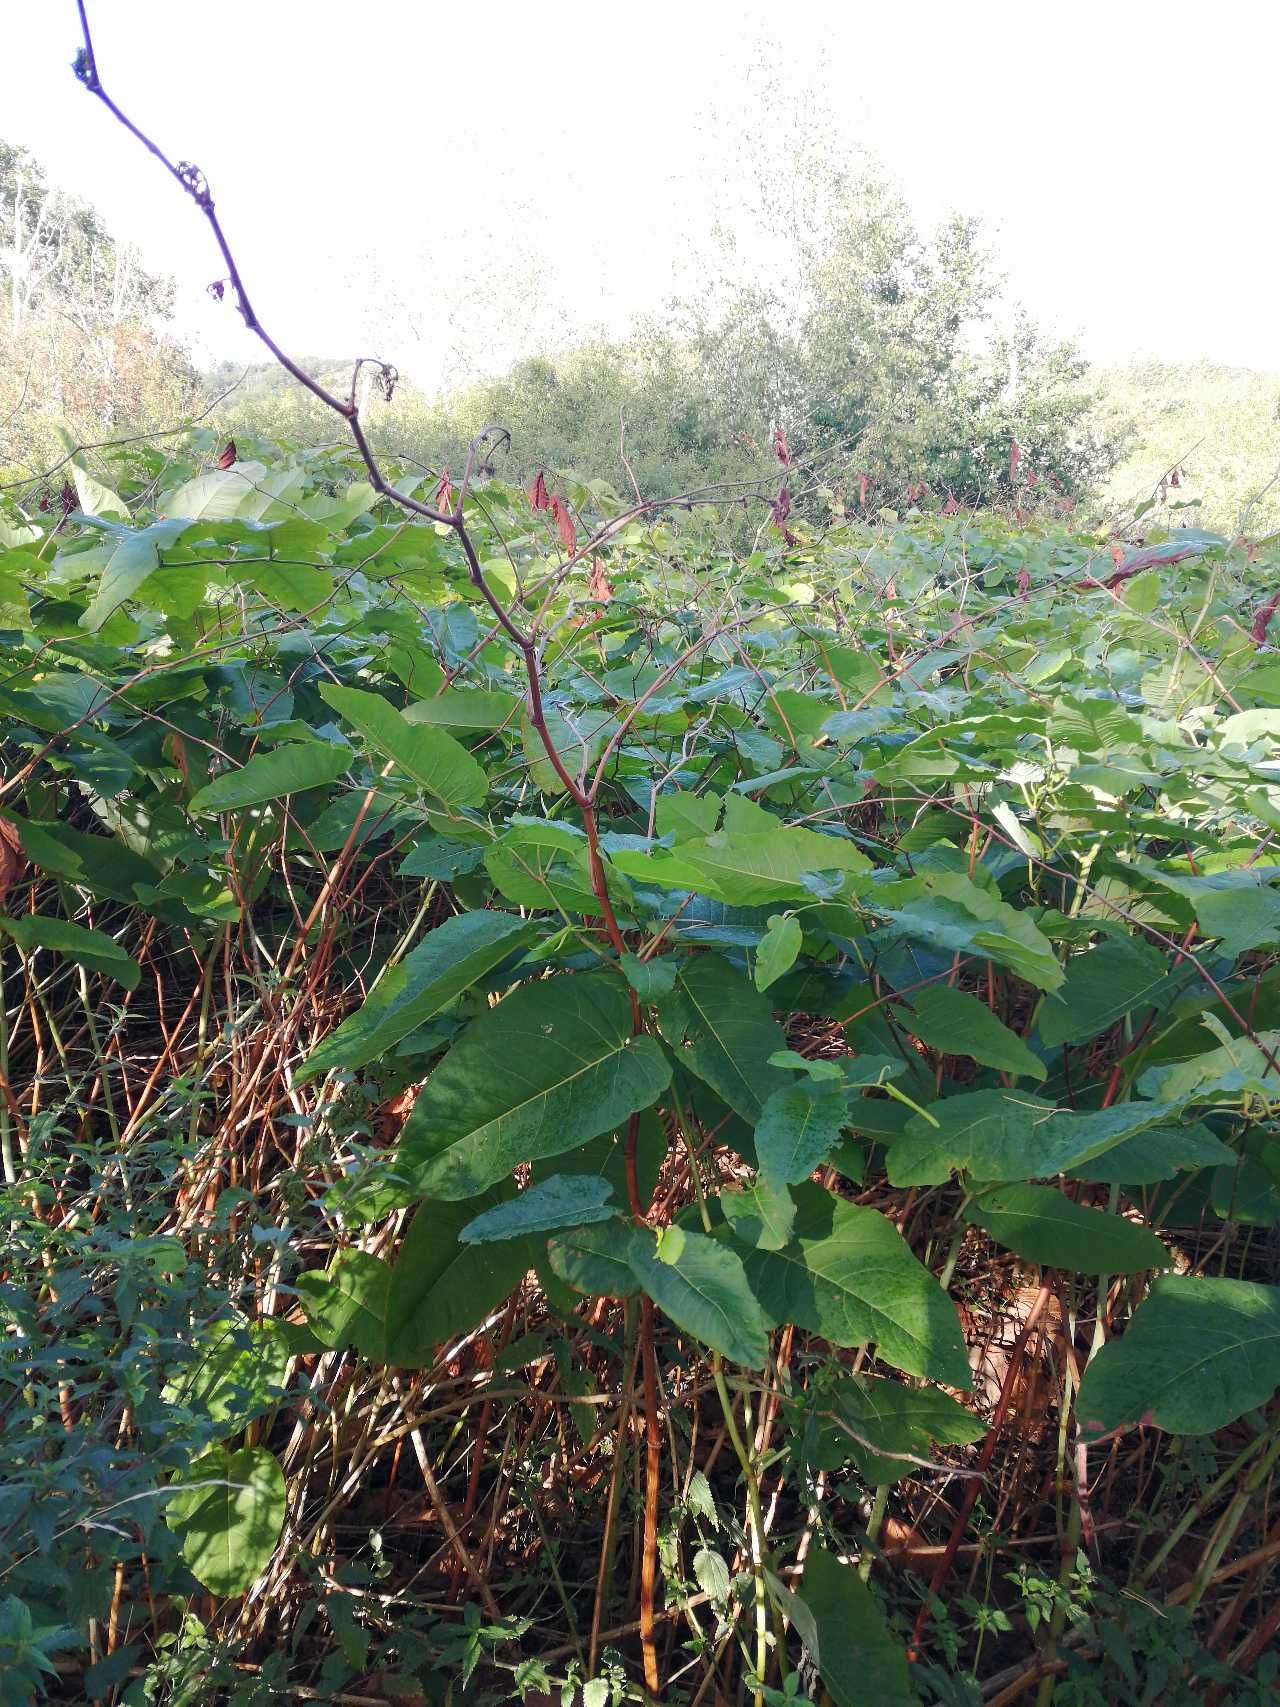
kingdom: Plantae
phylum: Tracheophyta
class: Magnoliopsida
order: Caryophyllales
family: Polygonaceae
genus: Reynoutria
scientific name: Reynoutria sachalinensis
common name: Kæmpe-pileurt
